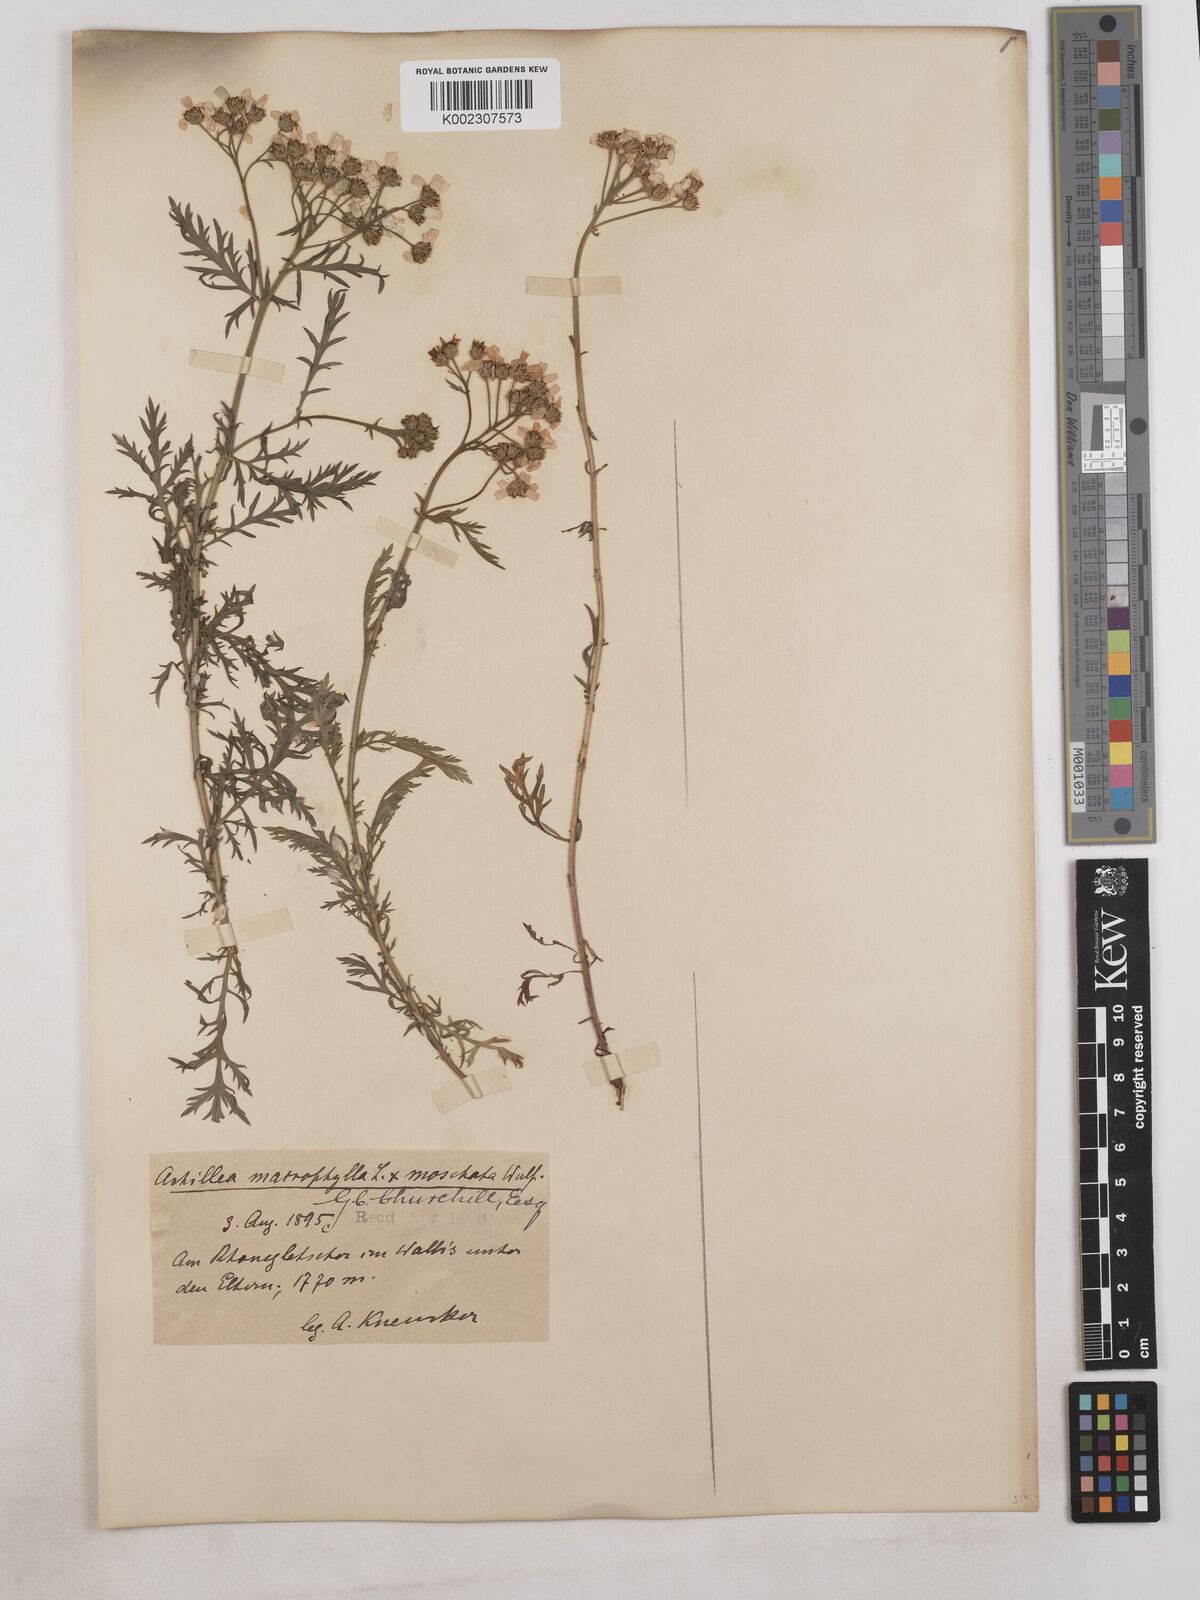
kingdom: Plantae
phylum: Tracheophyta
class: Magnoliopsida
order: Asterales
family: Asteraceae
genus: Achillea
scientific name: Achillea valesiaca
